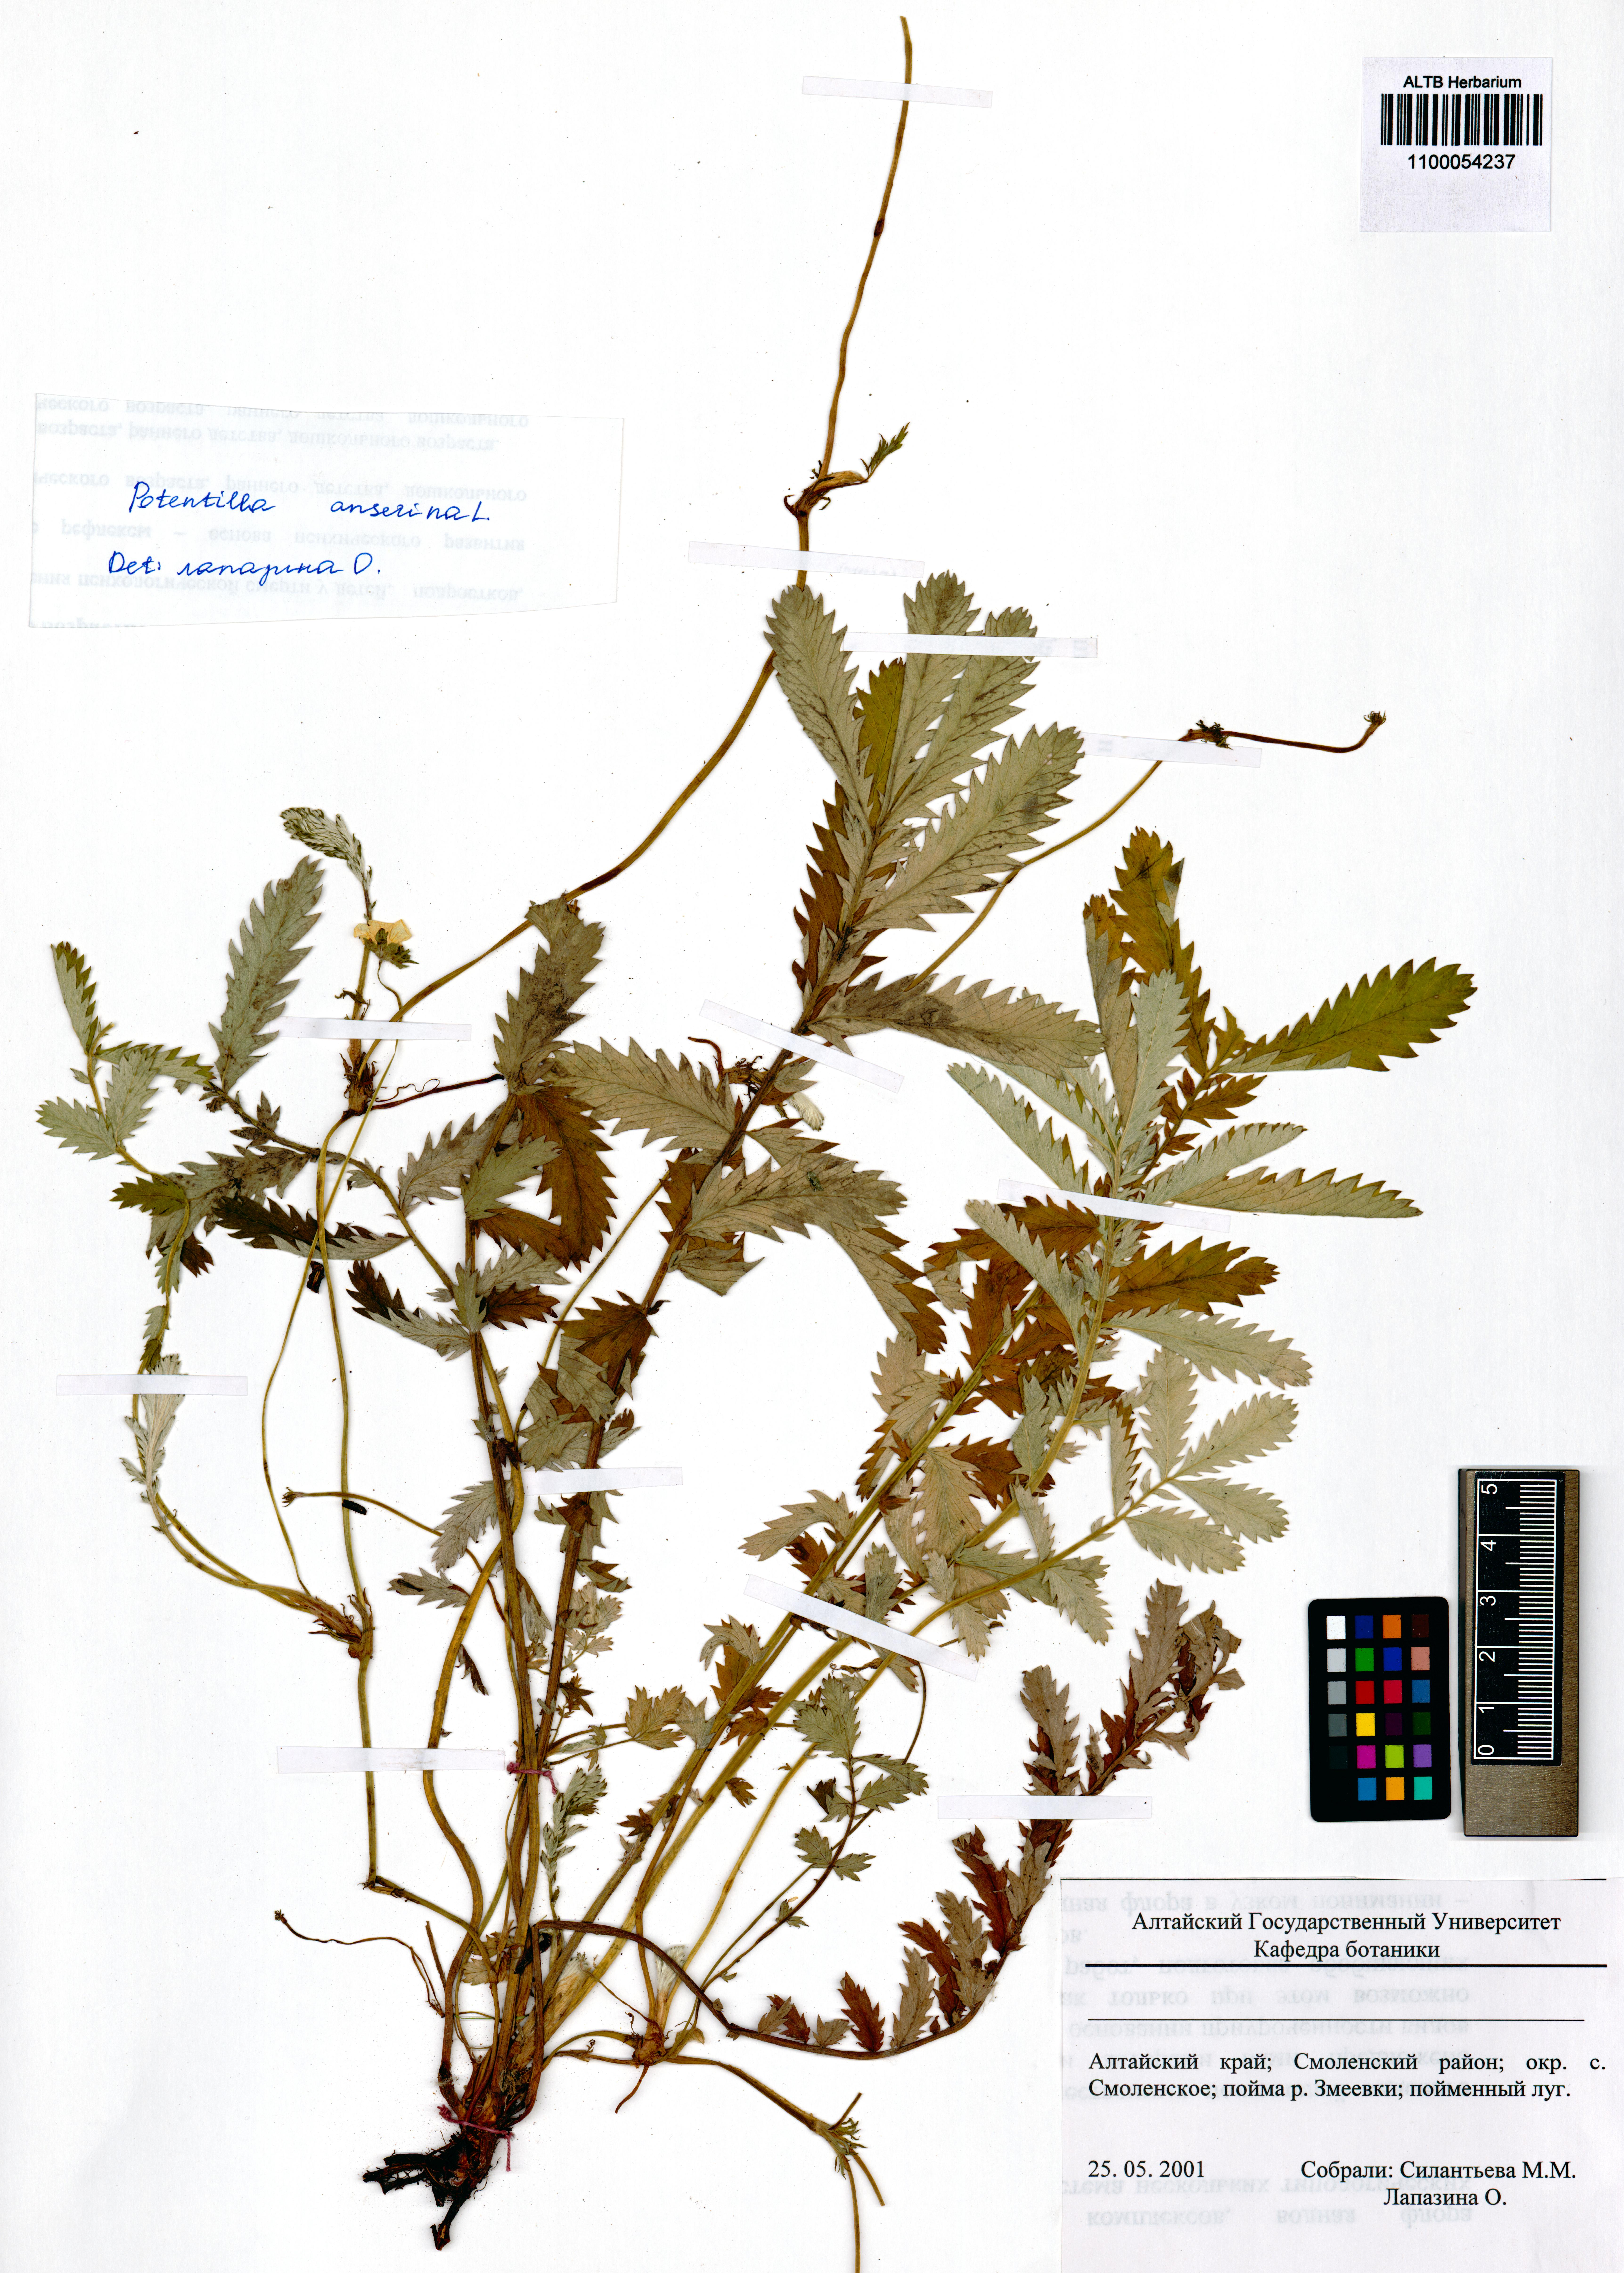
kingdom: Plantae
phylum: Tracheophyta
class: Magnoliopsida
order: Rosales
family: Rosaceae
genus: Argentina
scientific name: Argentina anserina
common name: Common silverweed
